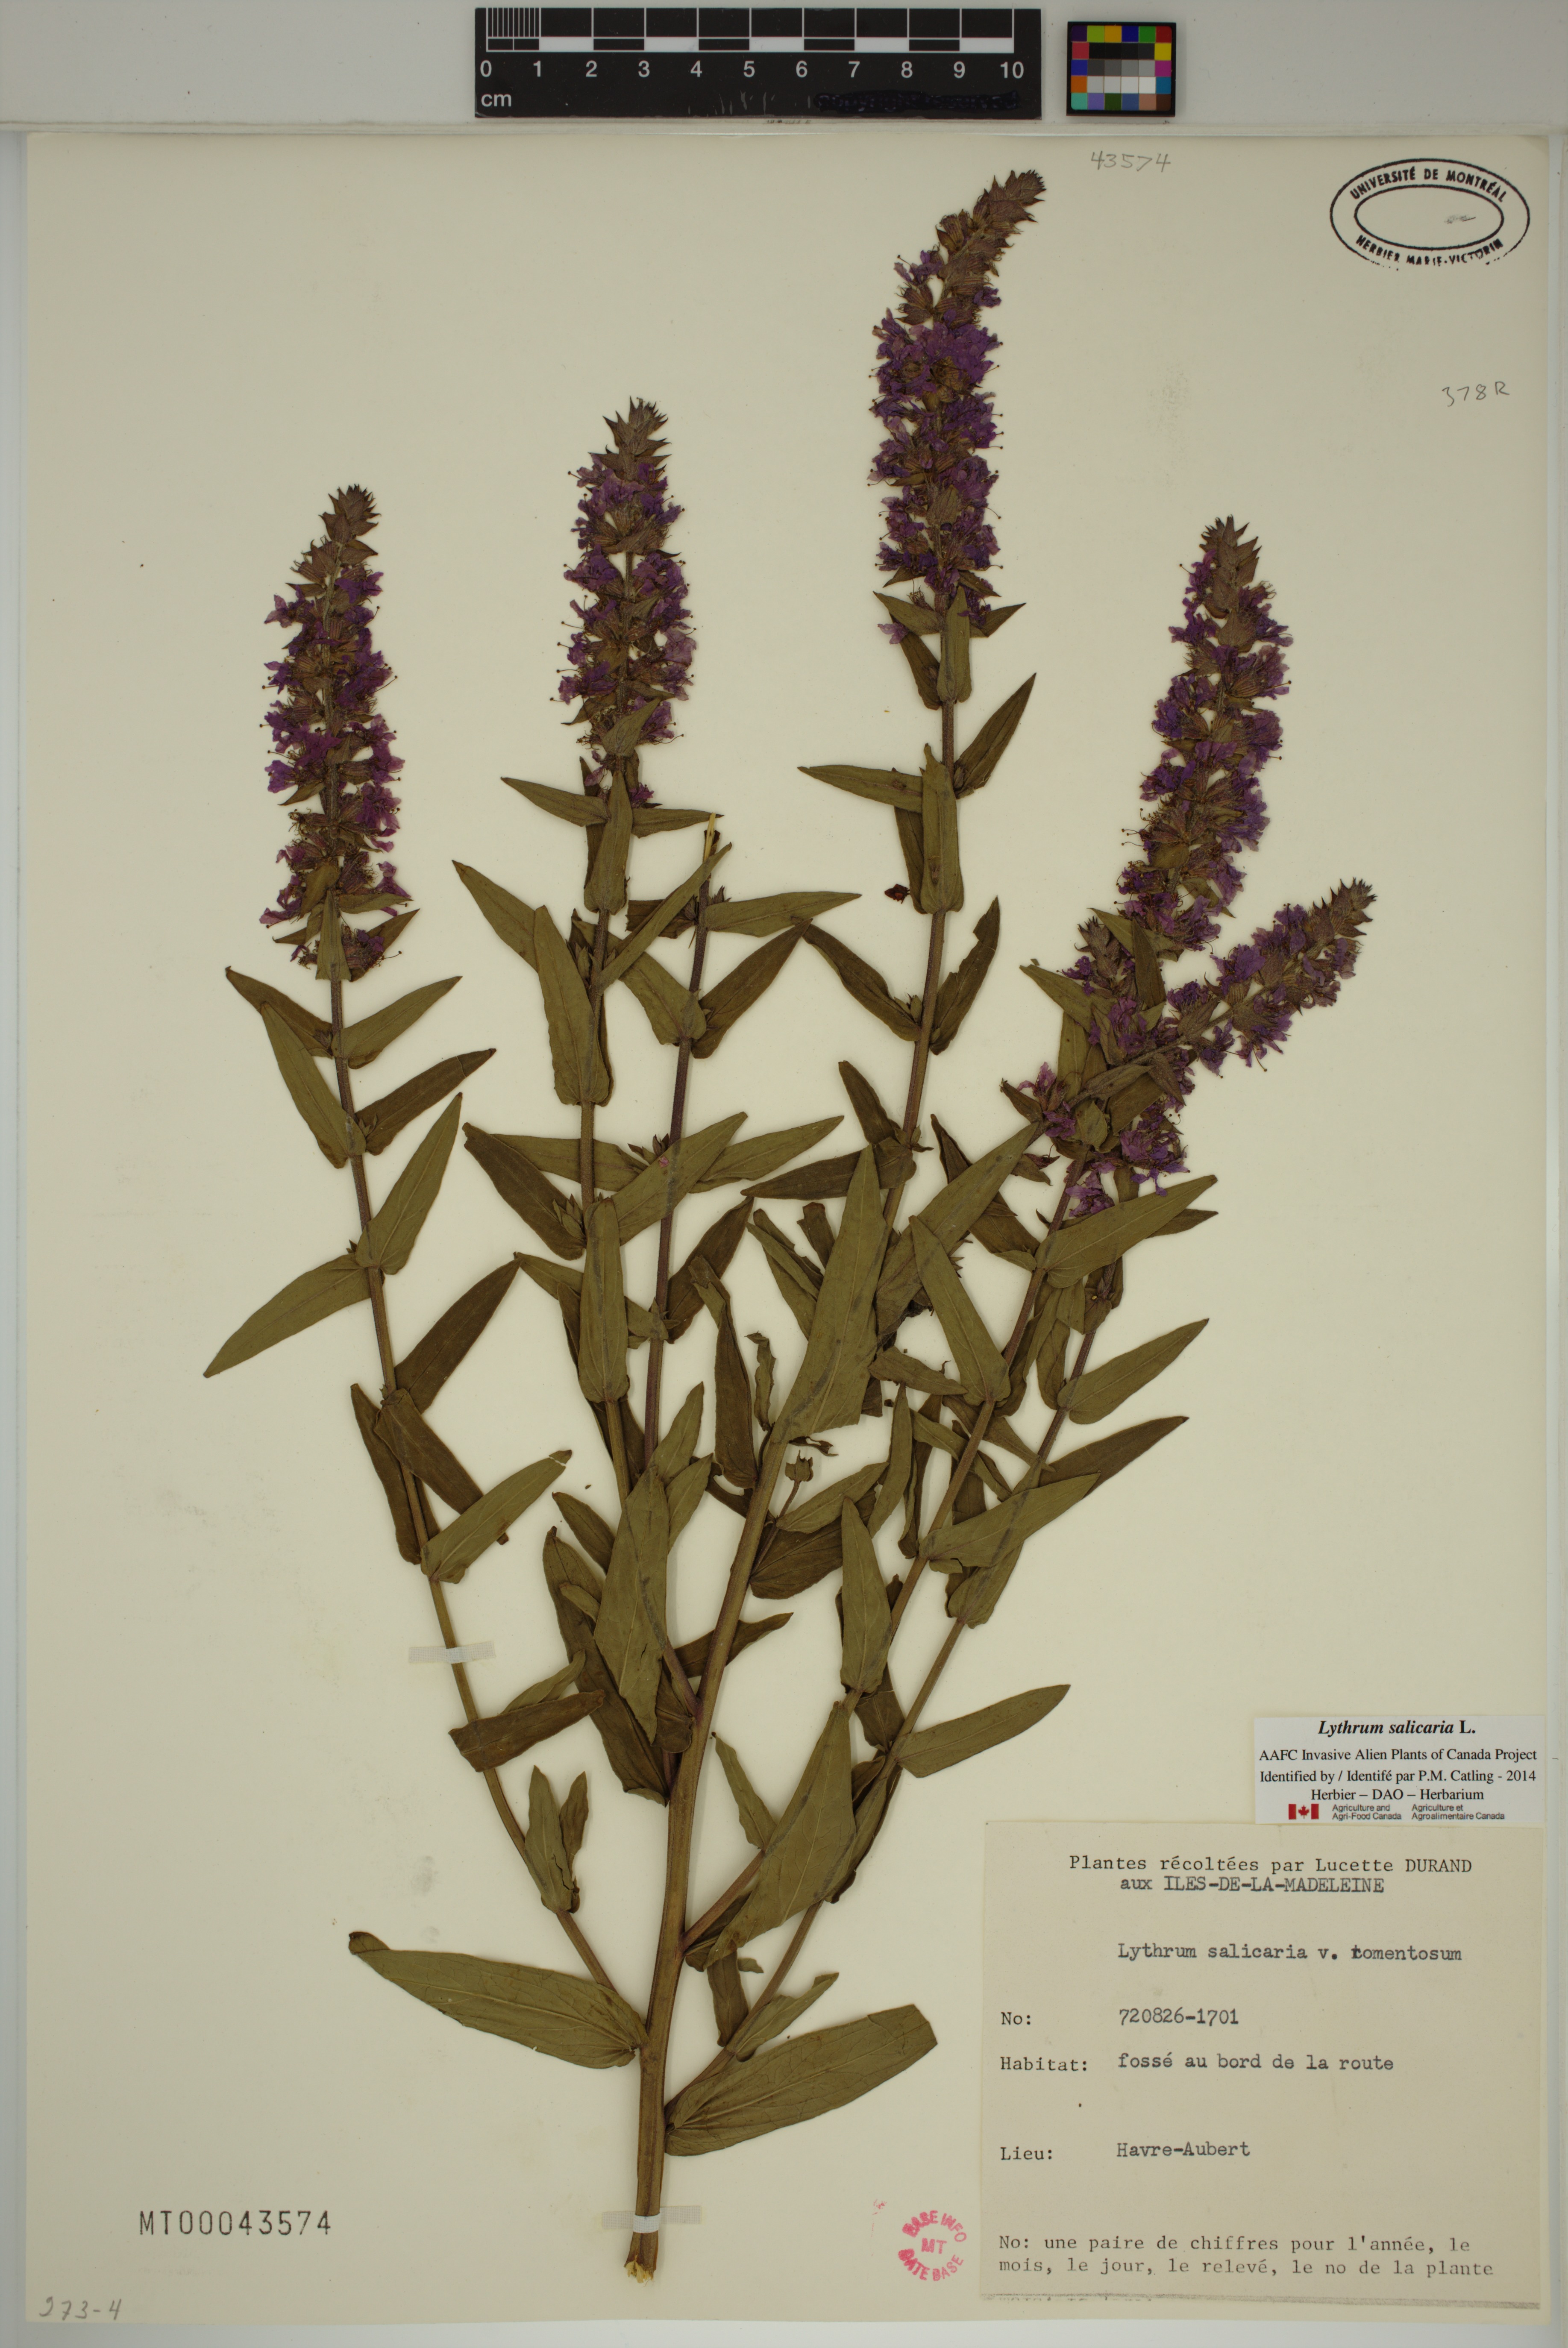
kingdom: Plantae
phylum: Tracheophyta
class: Magnoliopsida
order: Myrtales
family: Lythraceae
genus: Lythrum
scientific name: Lythrum salicaria
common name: Purple loosestrife
